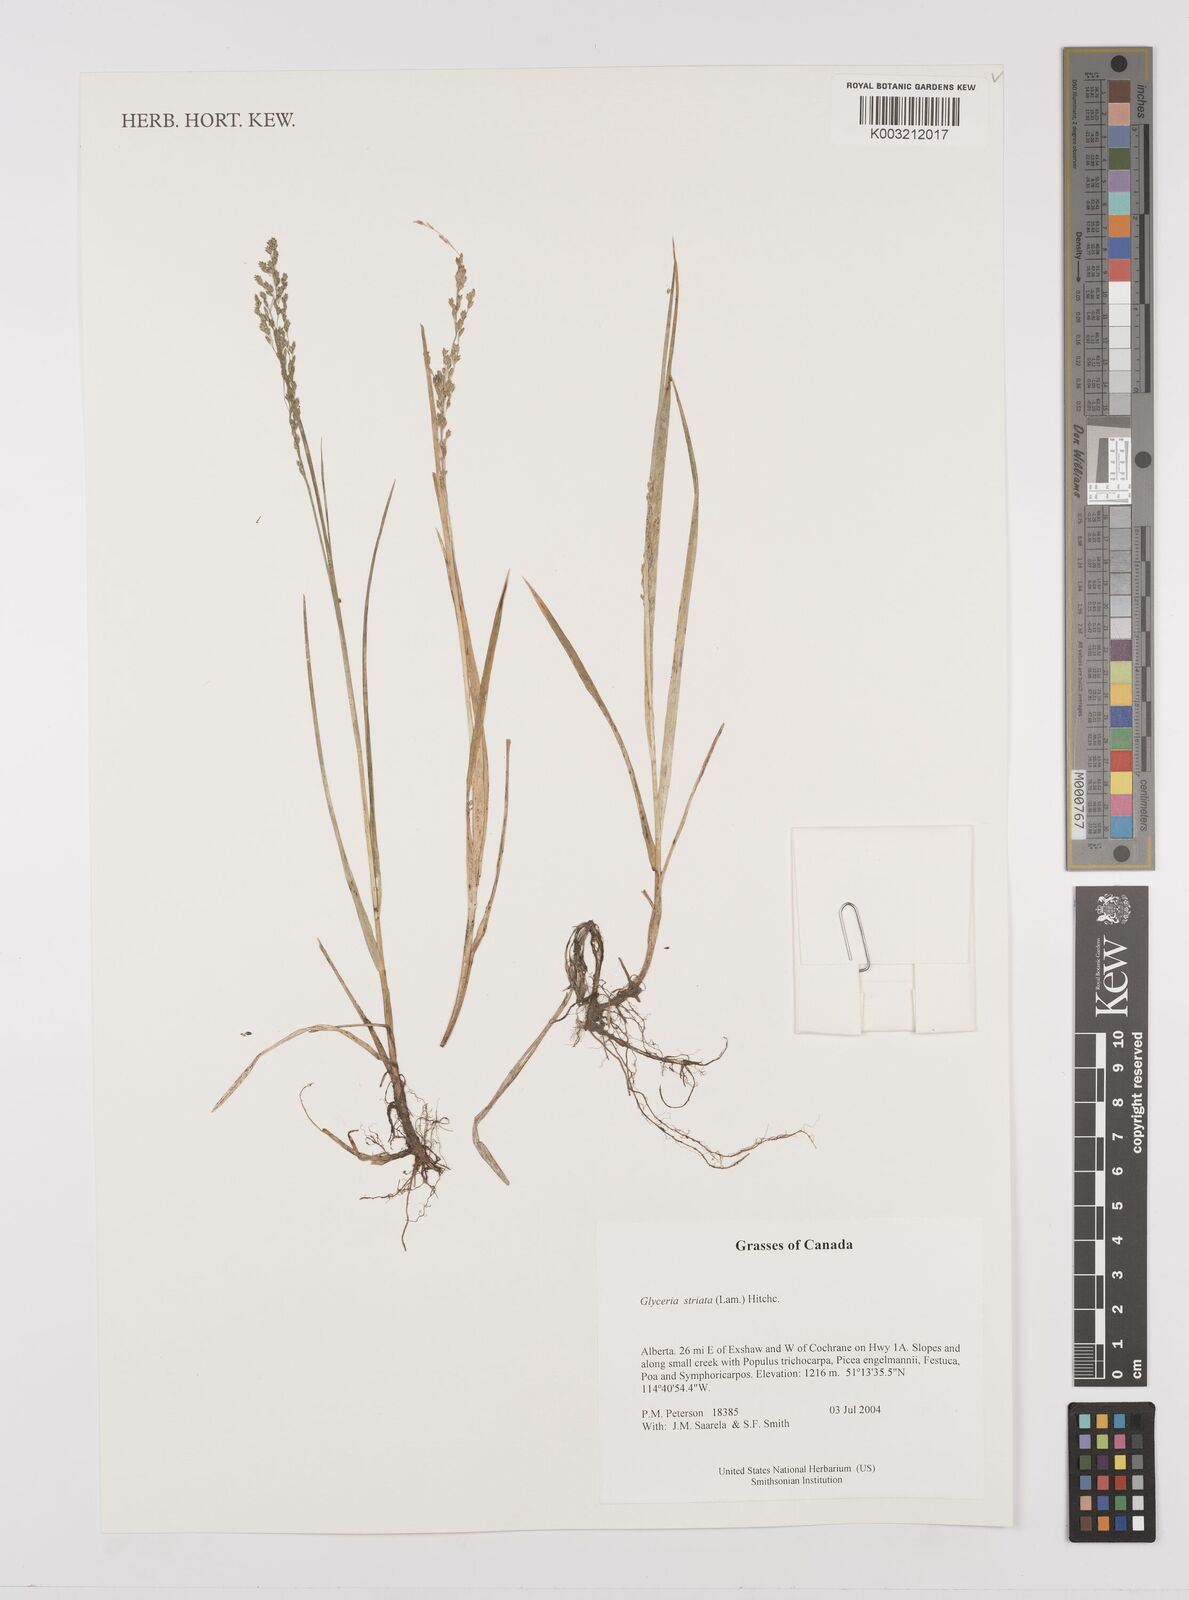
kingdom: Plantae
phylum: Tracheophyta
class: Liliopsida
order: Poales
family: Poaceae
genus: Glyceria
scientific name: Glyceria striata
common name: Fowl manna grass
